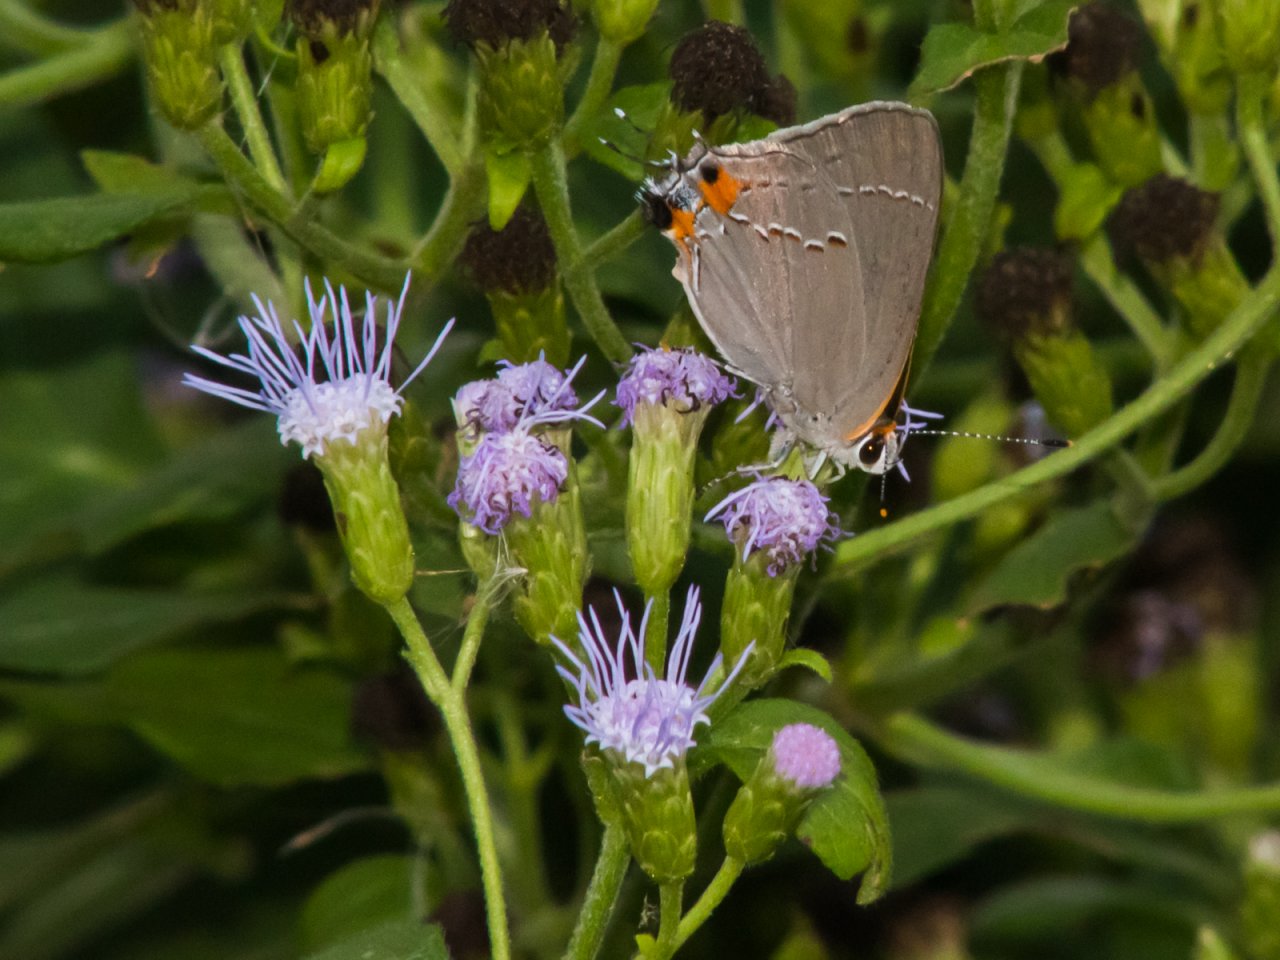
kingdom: Animalia
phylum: Arthropoda
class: Insecta
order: Lepidoptera
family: Lycaenidae
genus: Strymon
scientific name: Strymon melinus
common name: Gray Hairstreak
